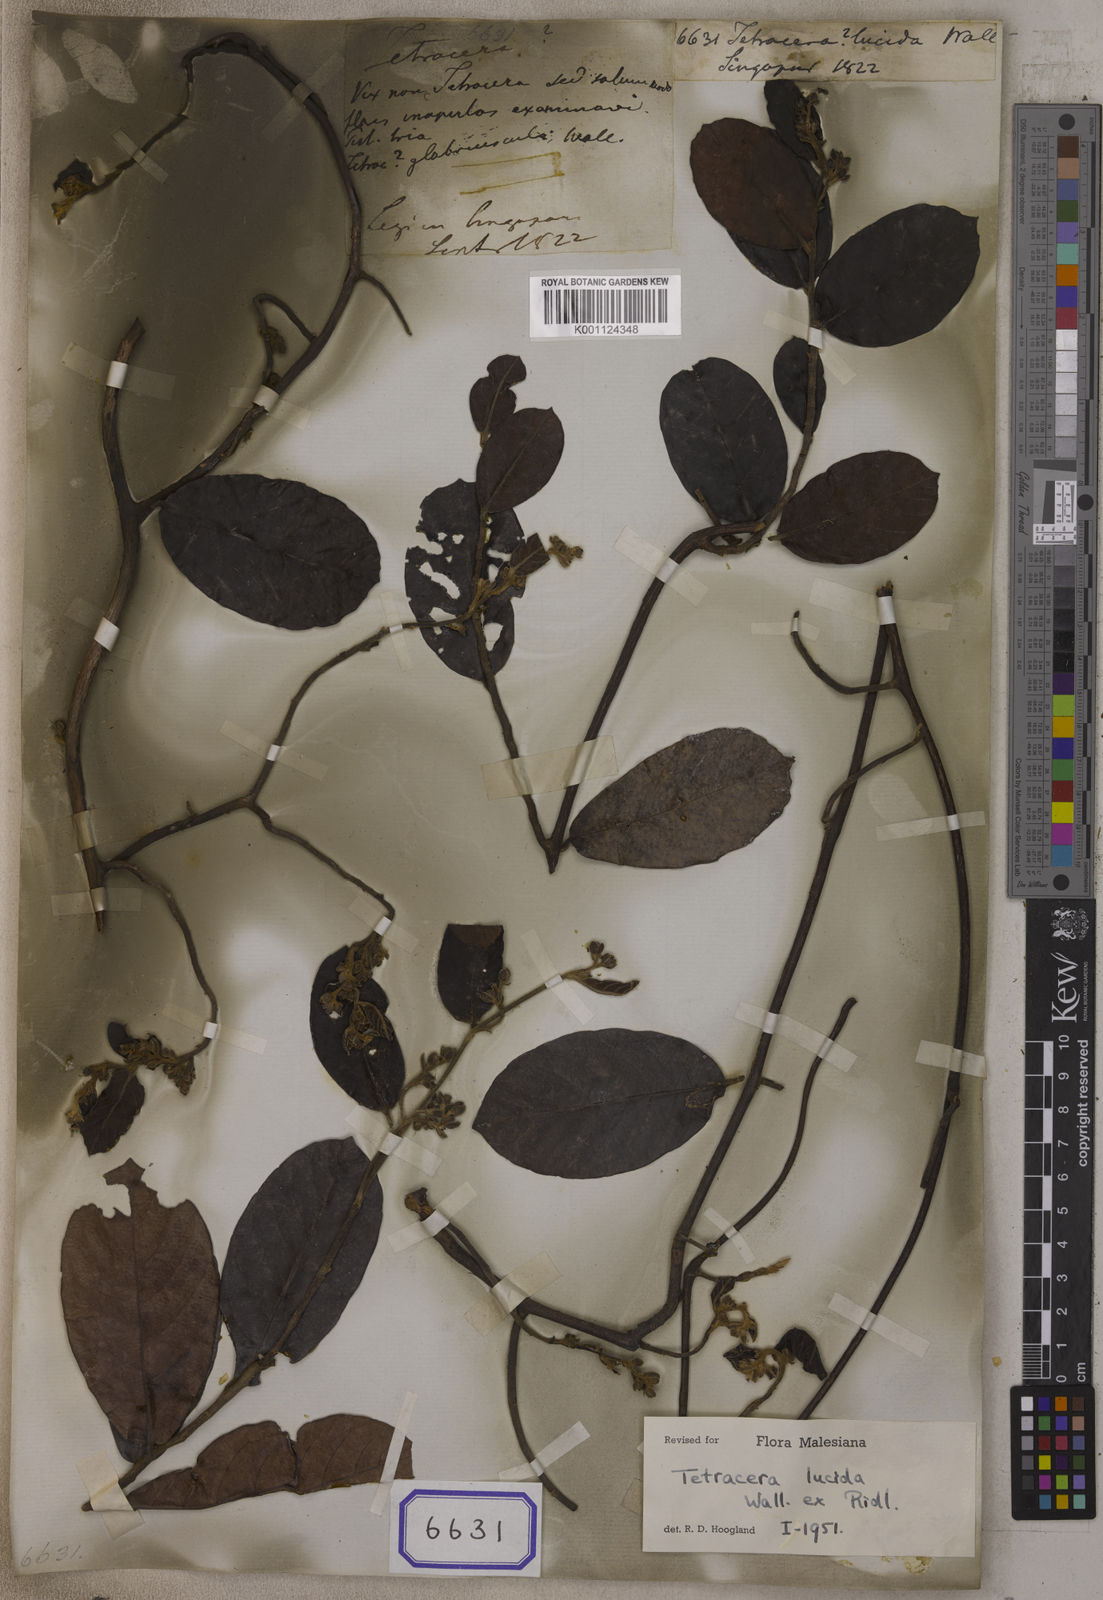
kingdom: Plantae
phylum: Tracheophyta
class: Magnoliopsida
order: Dilleniales
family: Dilleniaceae
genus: Tetracera
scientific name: Tetracera
